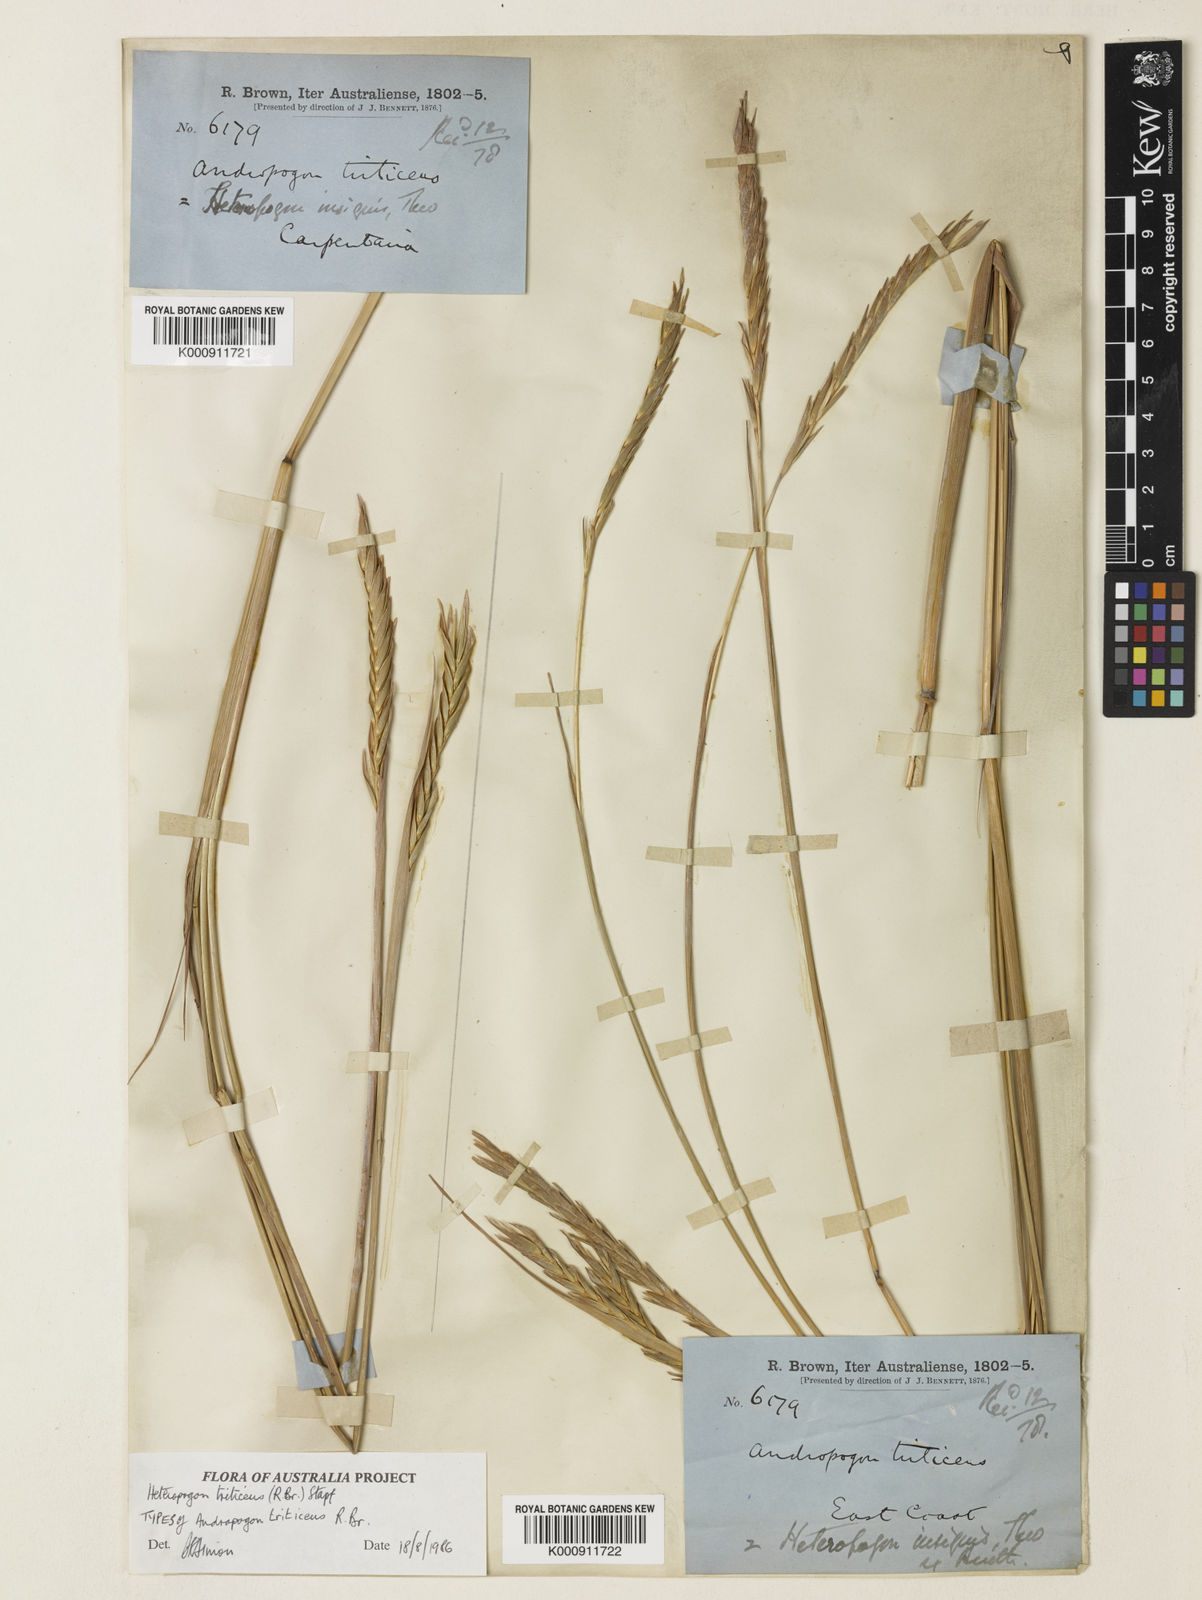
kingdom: Plantae
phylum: Tracheophyta
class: Liliopsida
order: Poales
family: Poaceae
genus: Heteropogon
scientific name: Heteropogon triticeus
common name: Sugar grass
